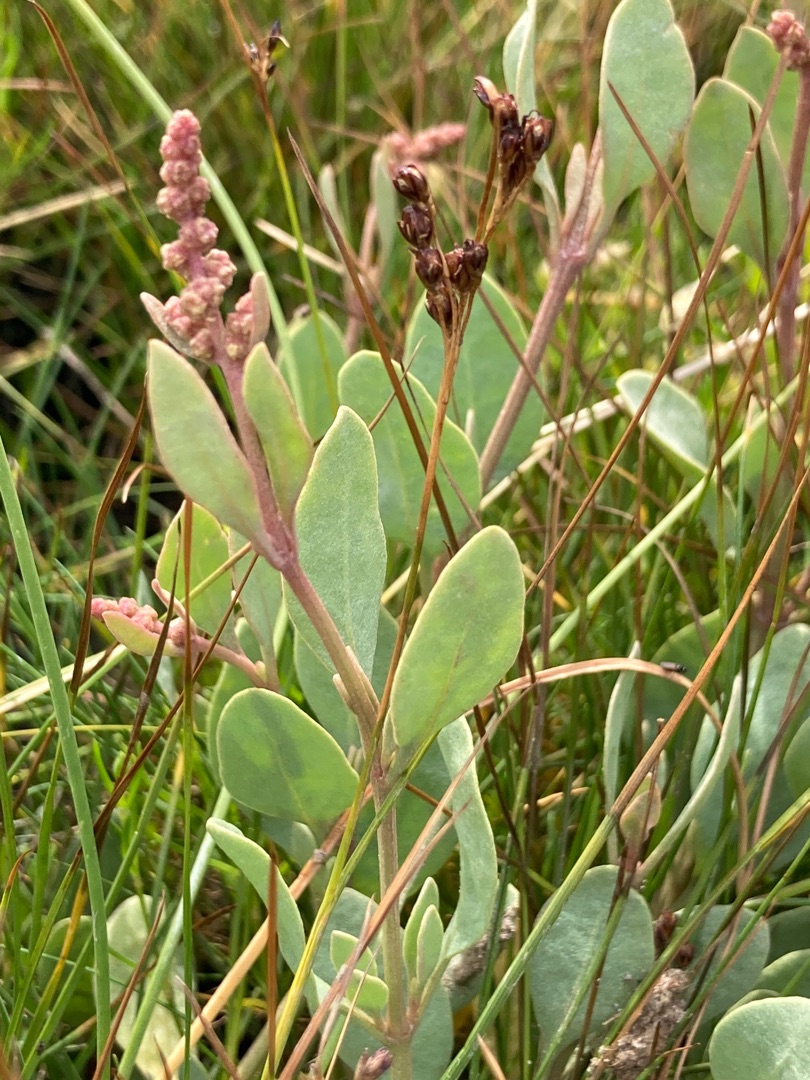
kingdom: Plantae
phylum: Tracheophyta
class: Magnoliopsida
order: Caryophyllales
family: Amaranthaceae
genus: Halimione
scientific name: Halimione portulacoides
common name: Stilkløs kilebæger
